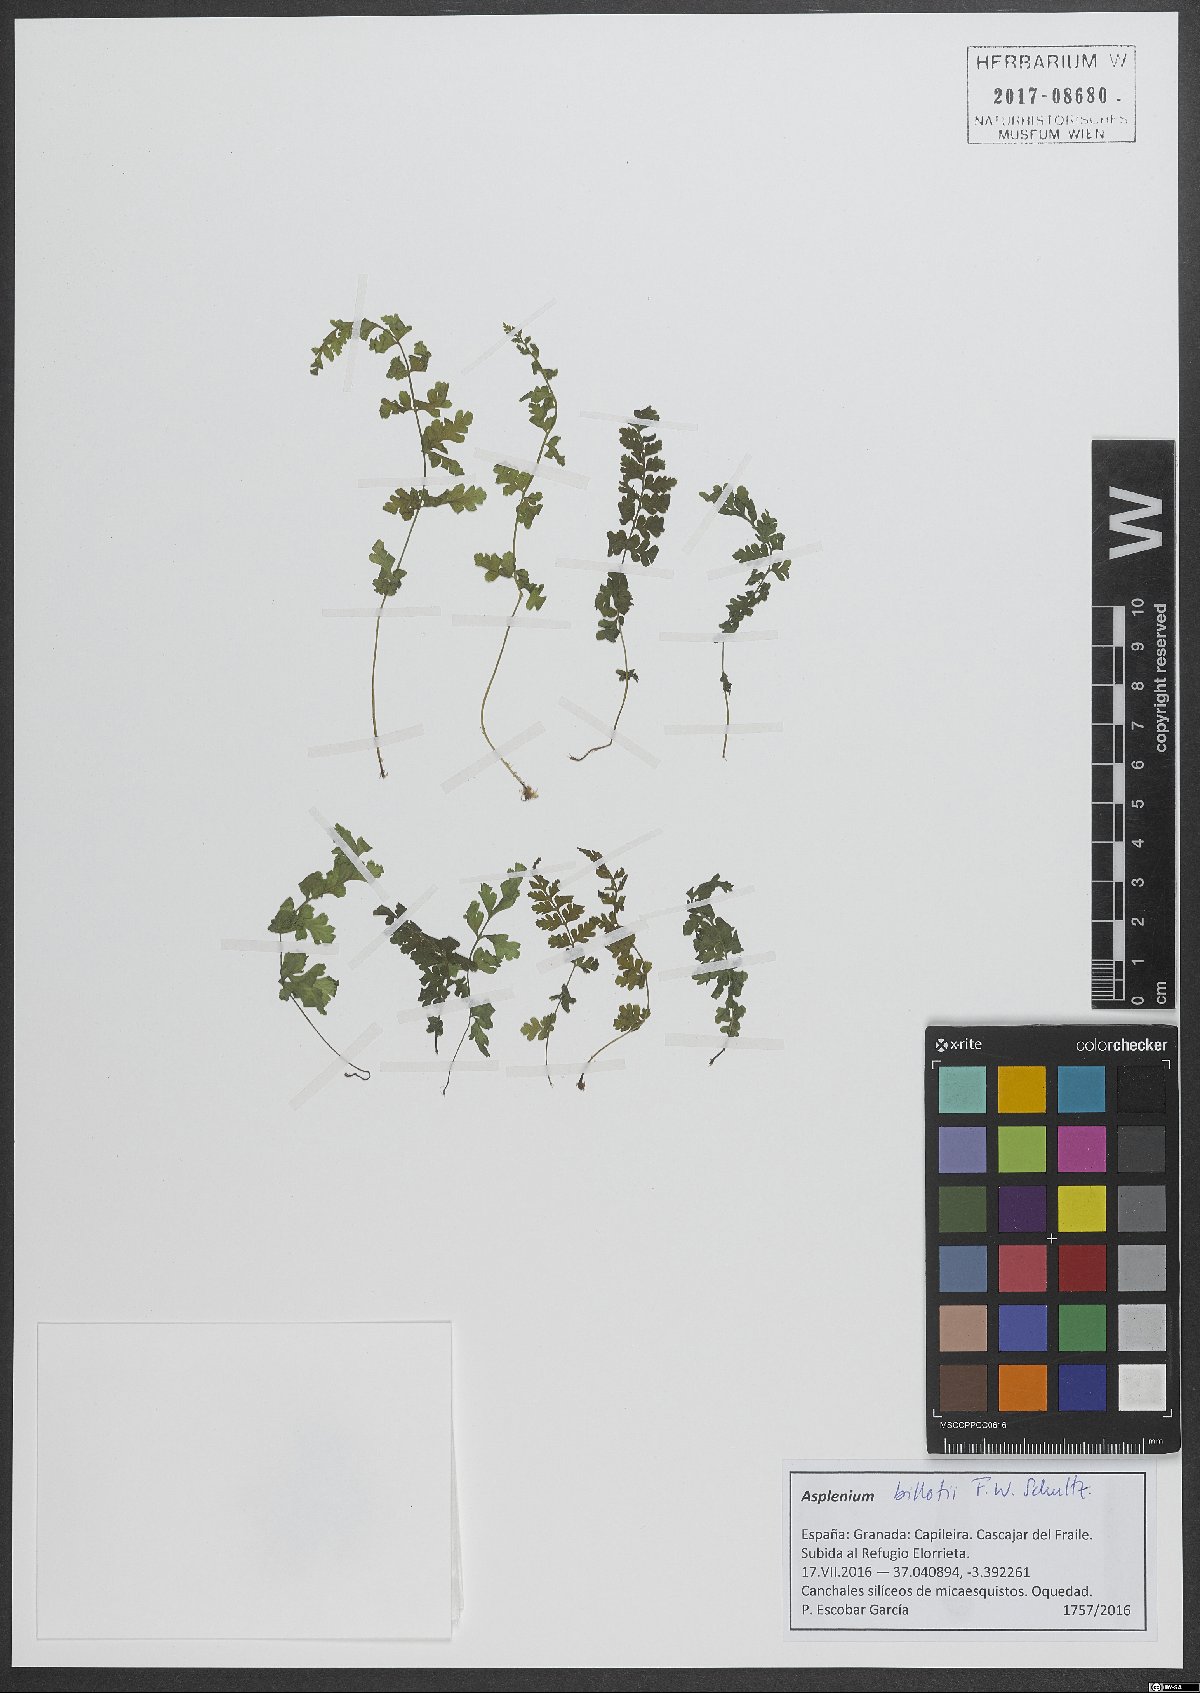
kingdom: Plantae
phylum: Tracheophyta
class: Polypodiopsida
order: Polypodiales
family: Aspleniaceae
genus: Asplenium
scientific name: Asplenium obovatum
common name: Lanceolate spleenwort
